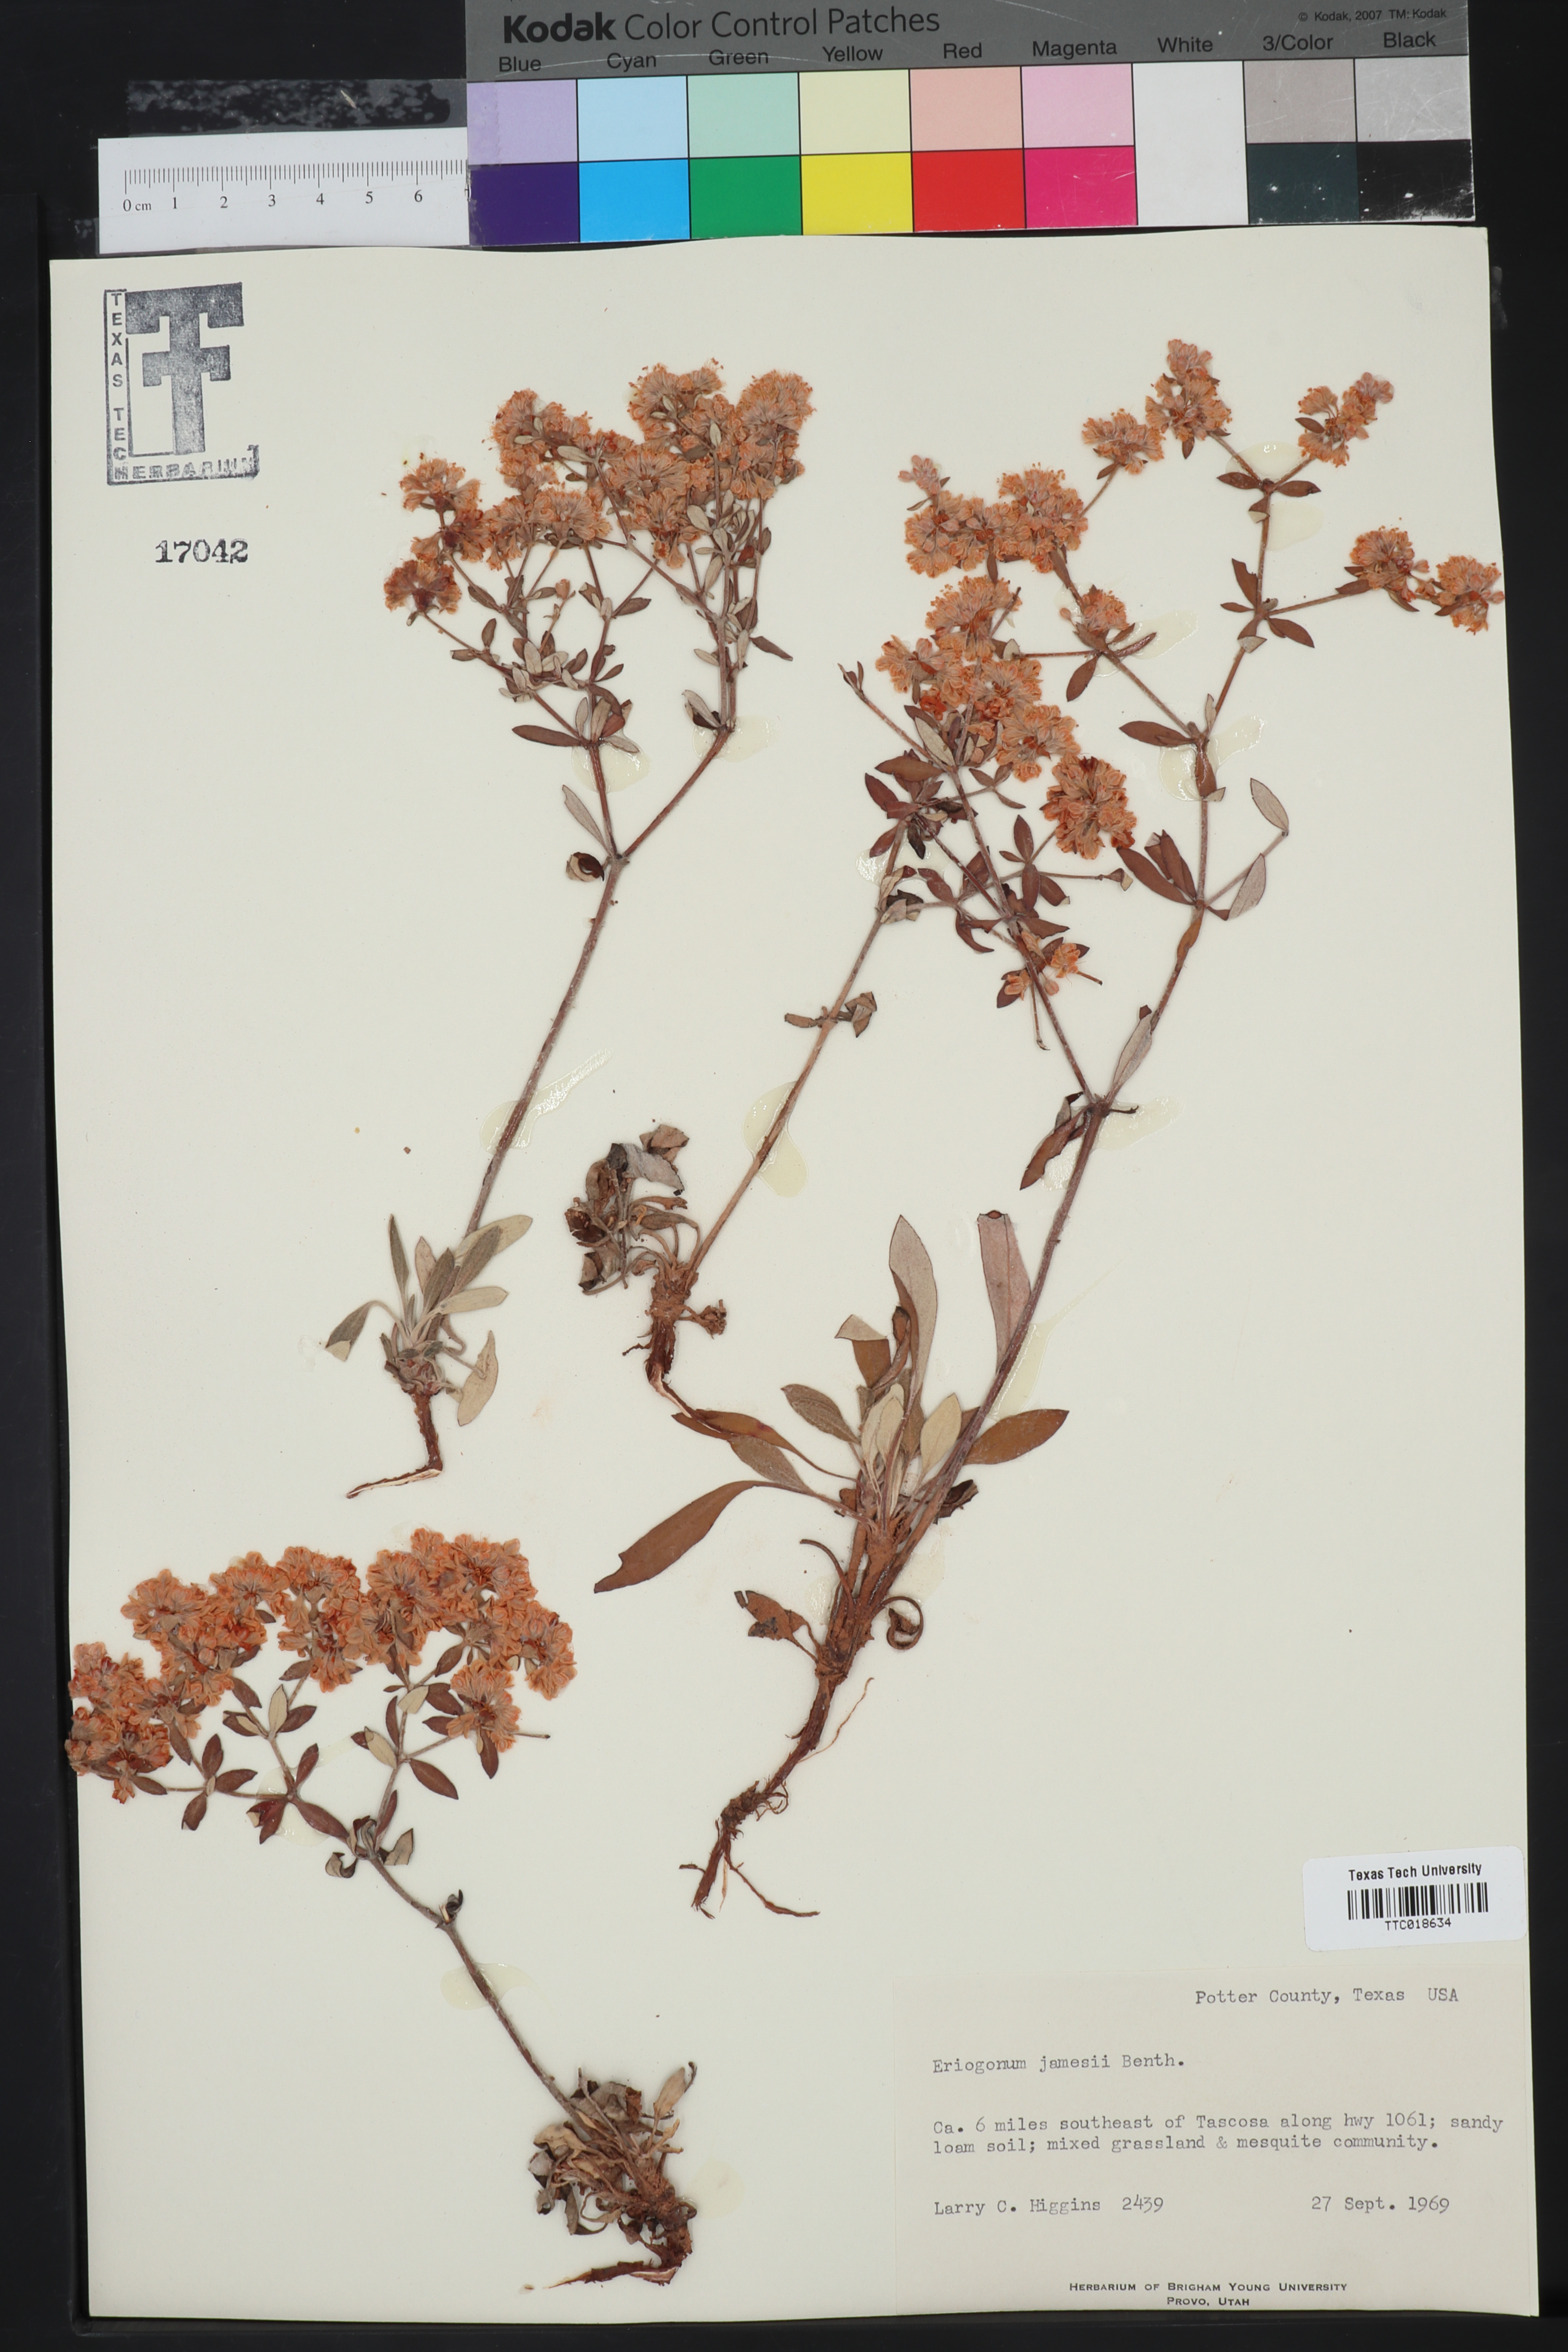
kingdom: Plantae
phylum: Tracheophyta
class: Magnoliopsida
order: Caryophyllales
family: Polygonaceae
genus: Eriogonum
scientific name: Eriogonum jamesii
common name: Antelope-sage
